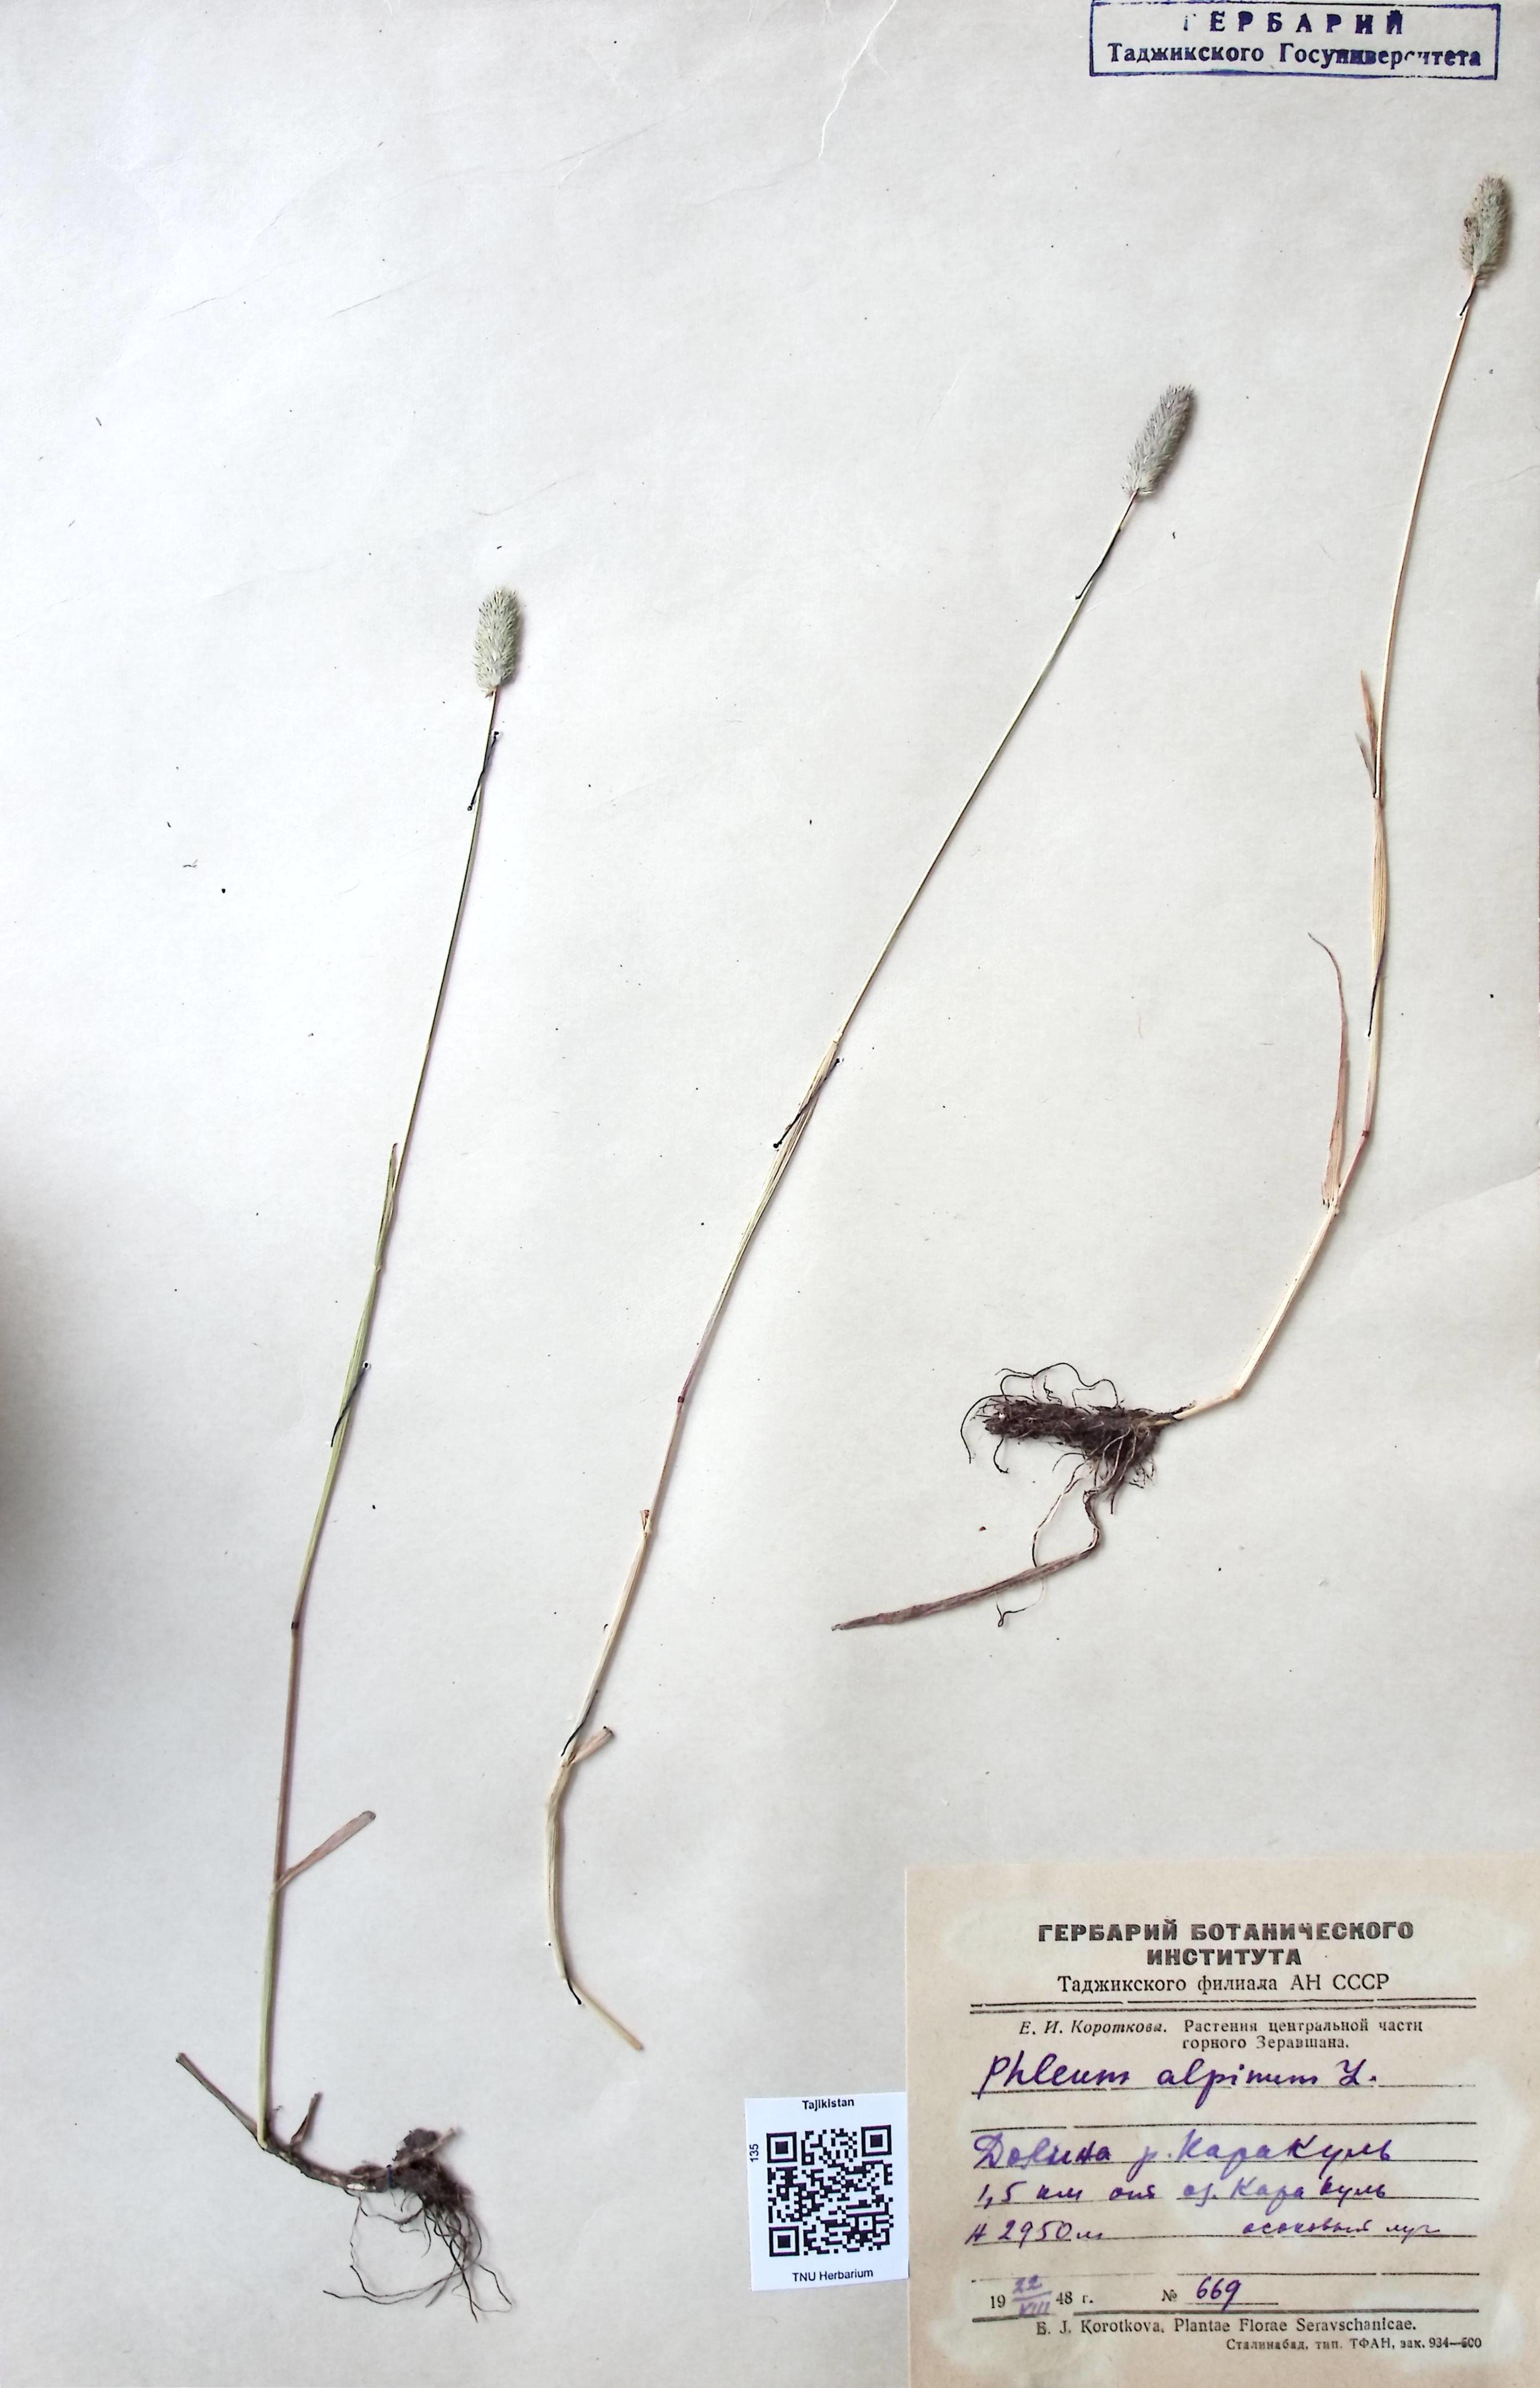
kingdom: Plantae
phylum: Tracheophyta
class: Liliopsida
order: Poales
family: Poaceae
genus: Phleum
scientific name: Phleum alpinum
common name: Alpine cat's-tail
